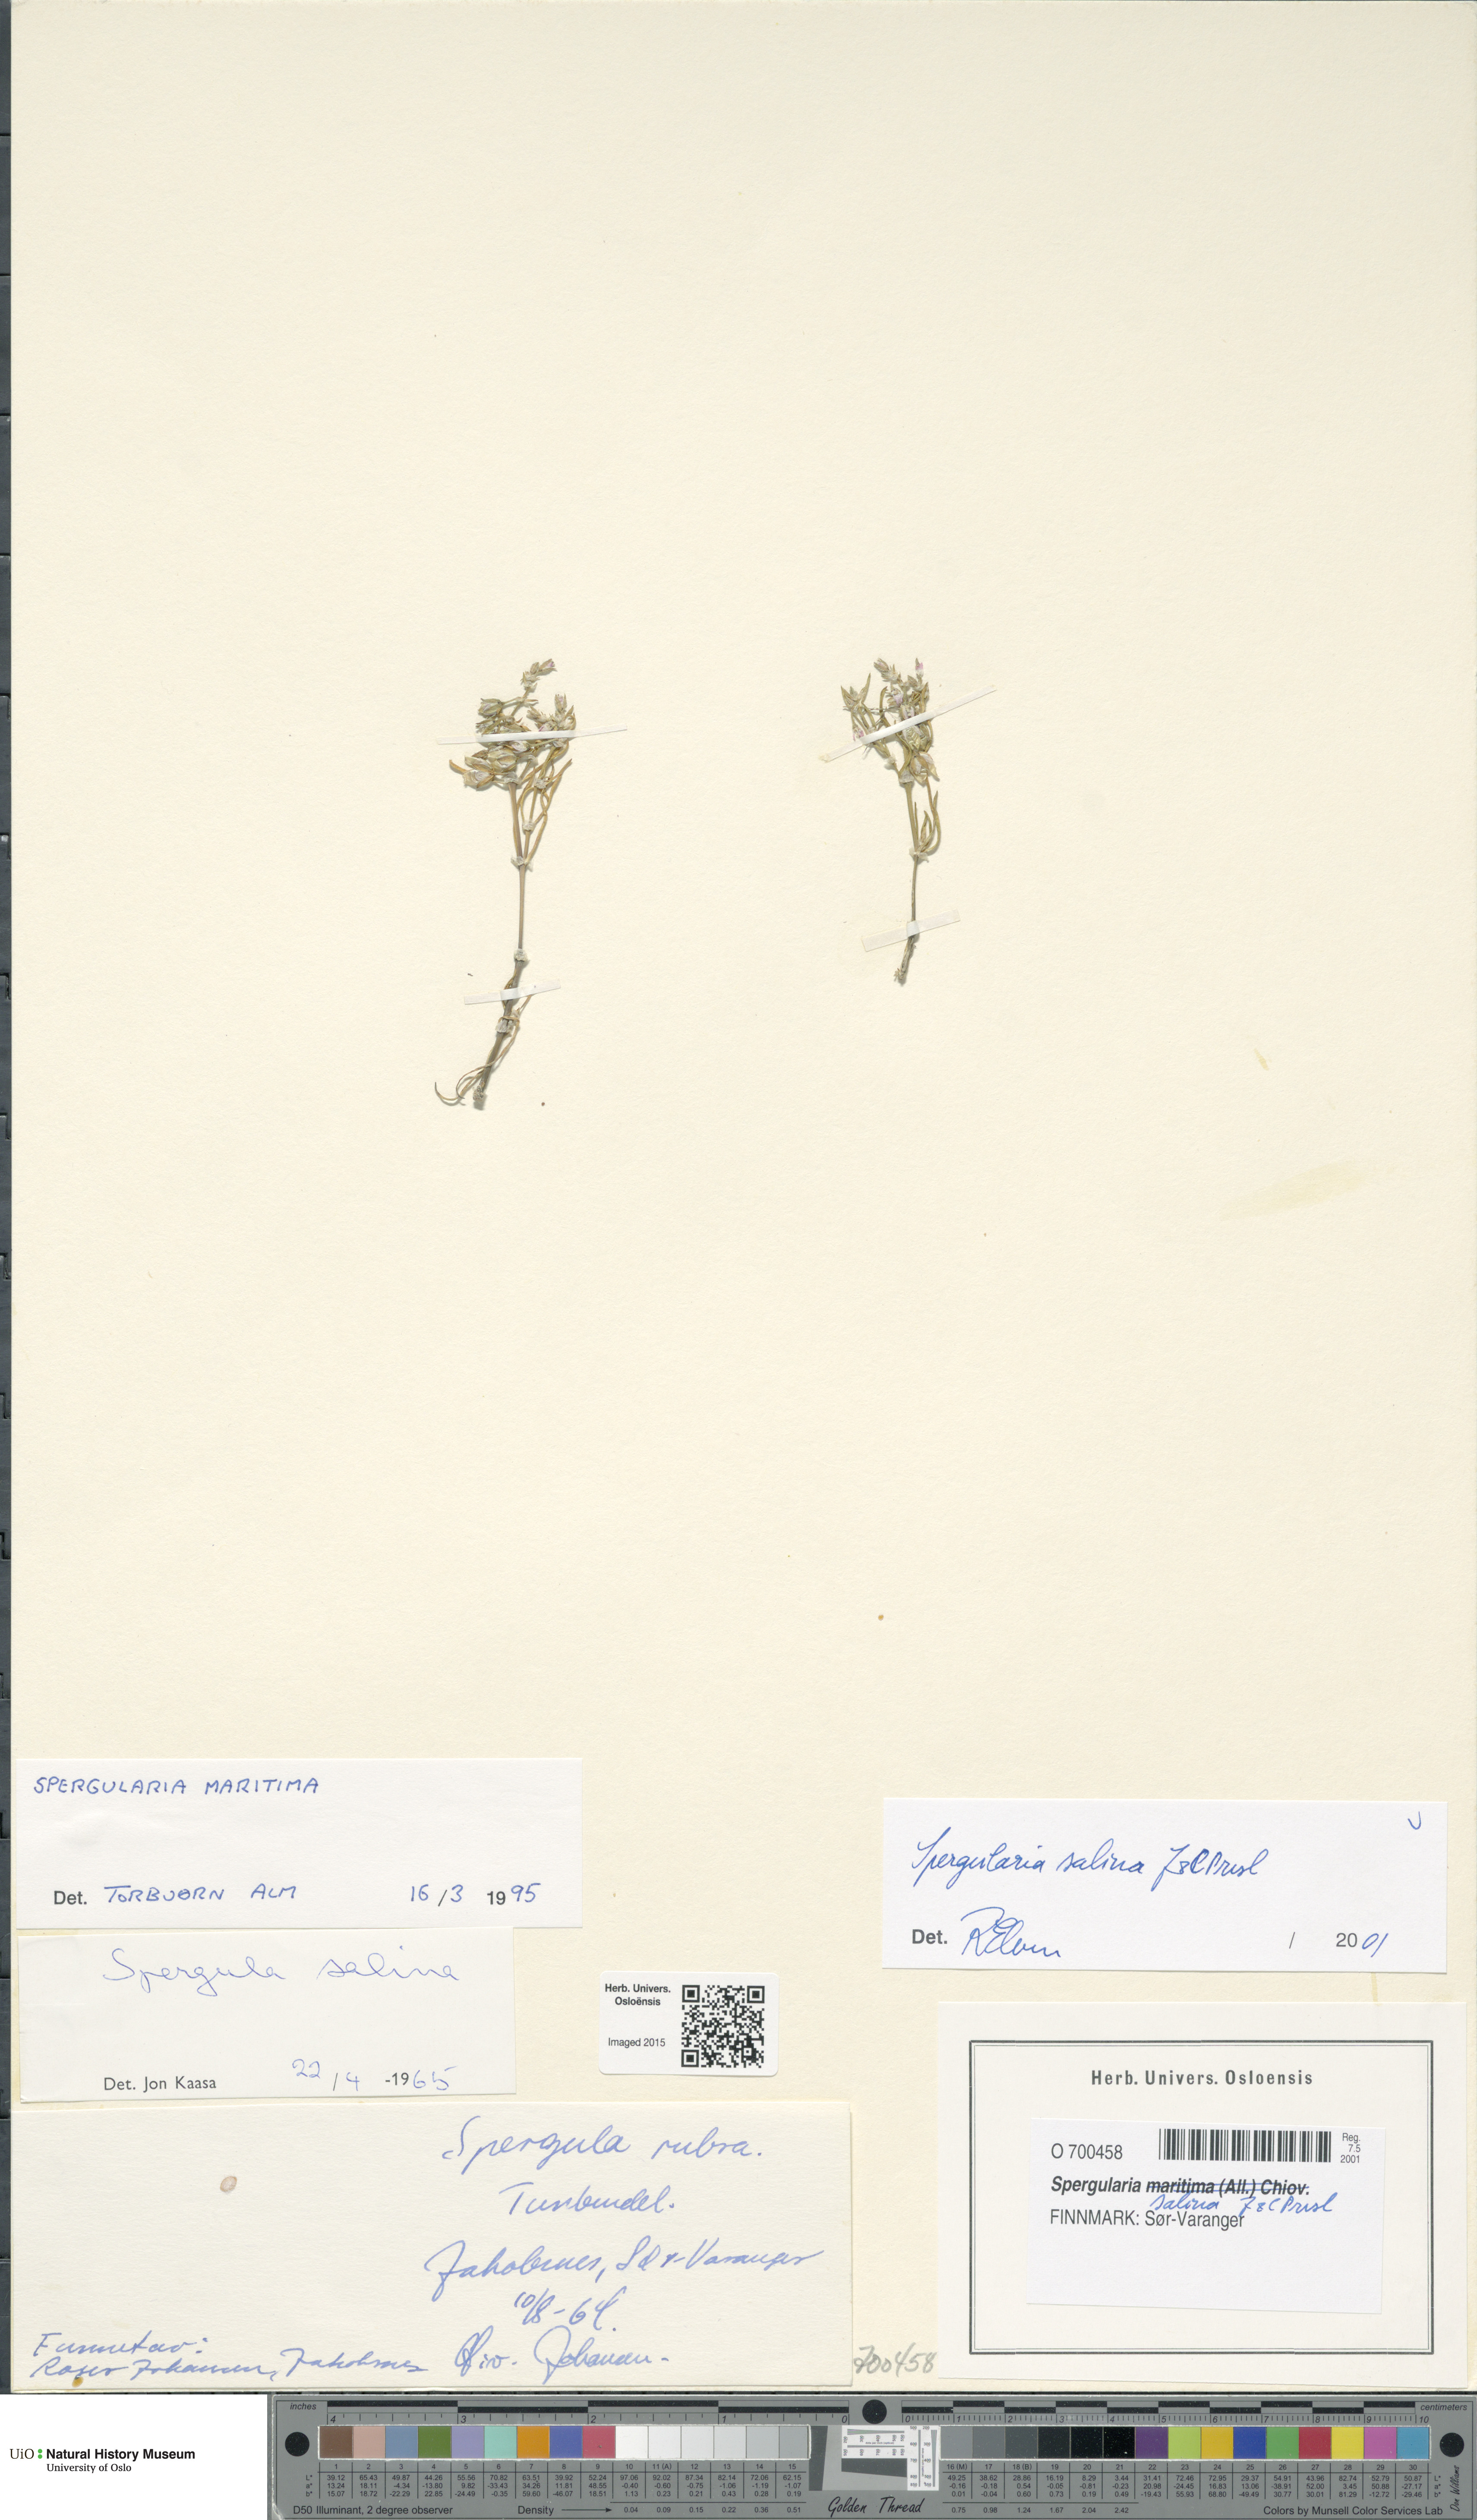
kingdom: Plantae
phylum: Tracheophyta
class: Magnoliopsida
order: Caryophyllales
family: Caryophyllaceae
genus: Spergularia
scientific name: Spergularia marina
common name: Lesser sea-spurrey
